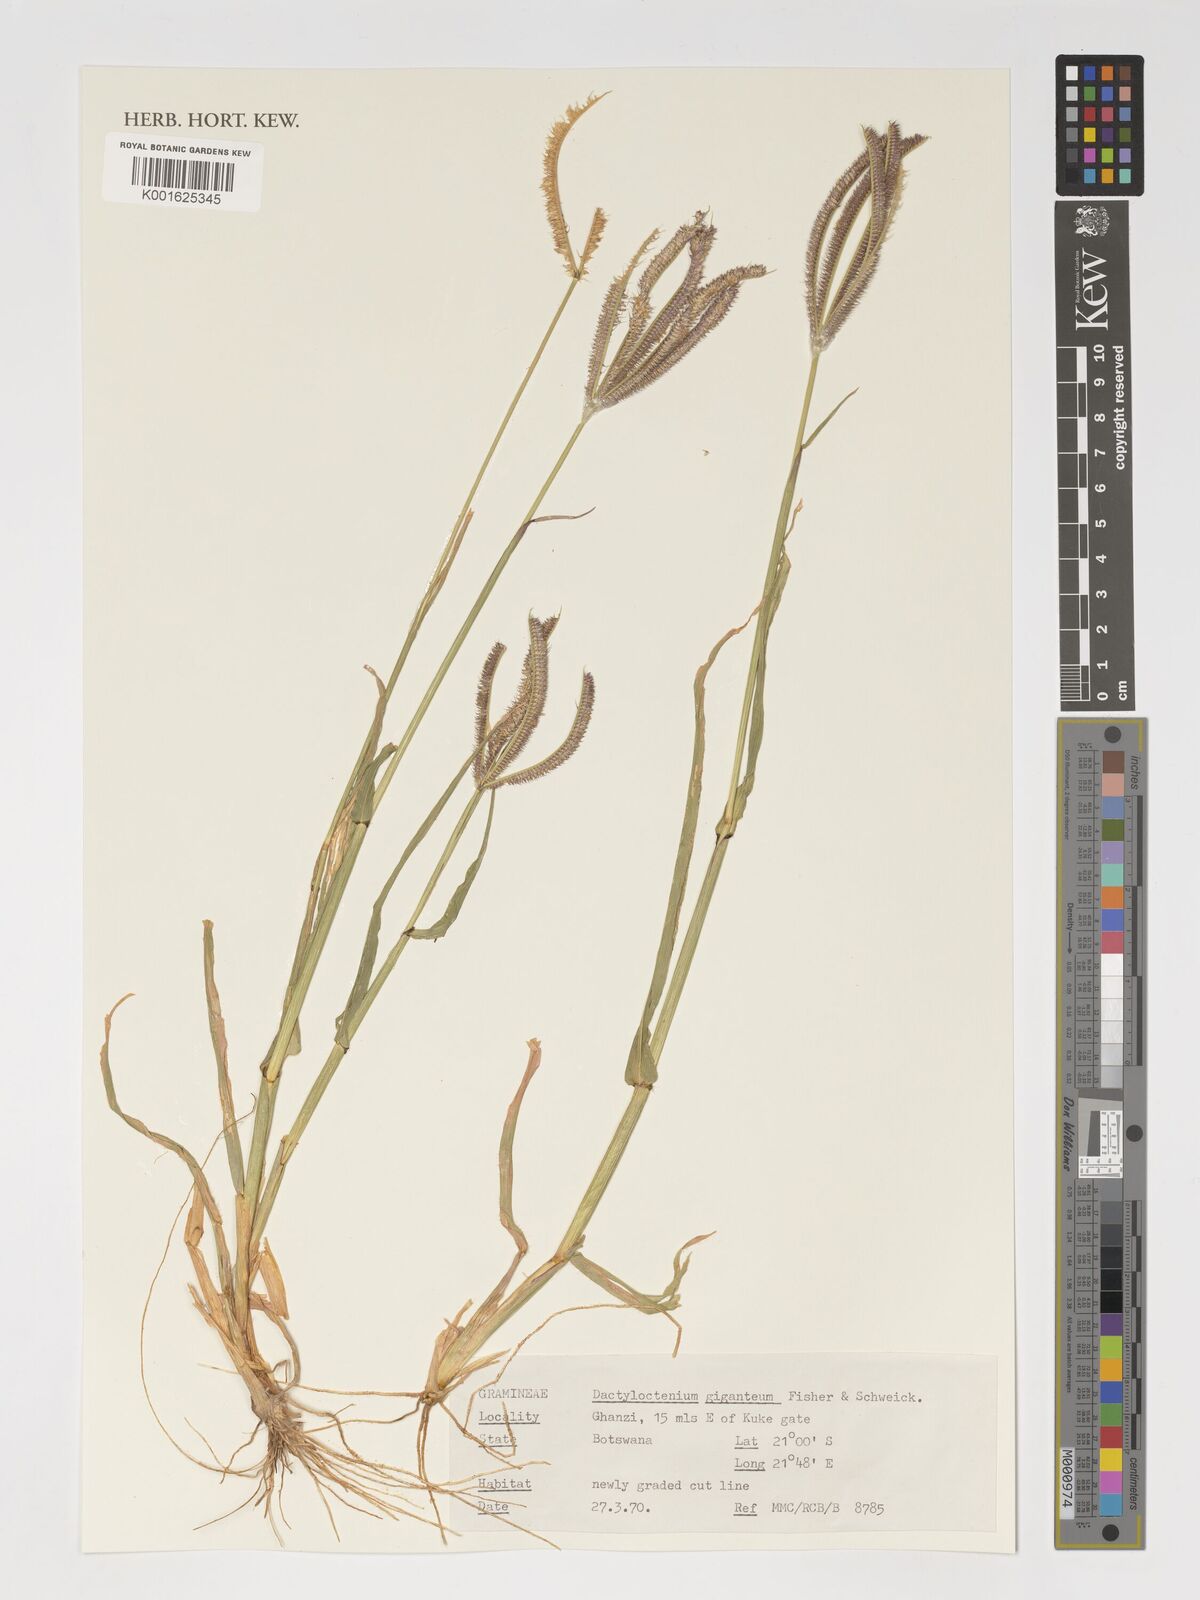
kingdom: Plantae
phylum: Tracheophyta
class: Liliopsida
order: Poales
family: Poaceae
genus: Dactyloctenium
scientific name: Dactyloctenium giganteum
